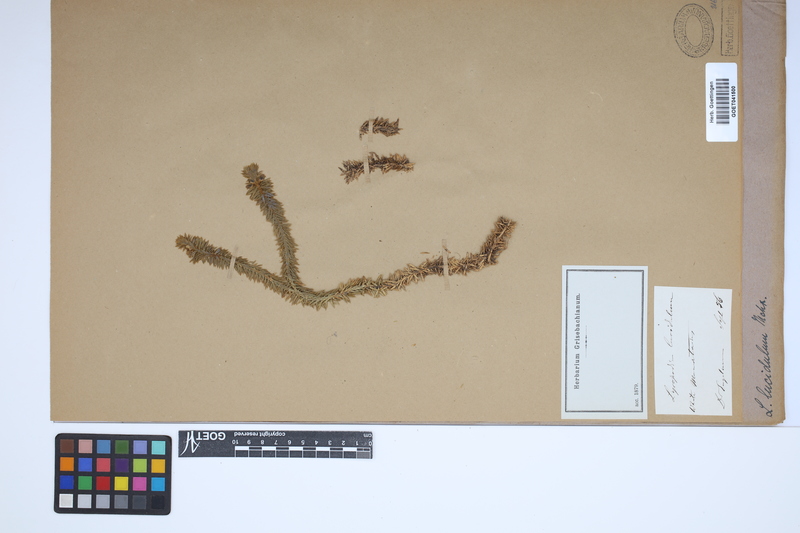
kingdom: Plantae
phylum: Tracheophyta
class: Lycopodiopsida
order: Lycopodiales
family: Lycopodiaceae
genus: Huperzia
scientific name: Huperzia lucidula
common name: Shining clubmoss
